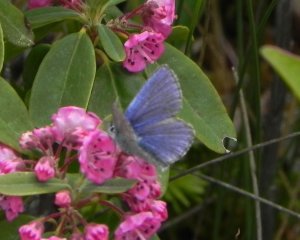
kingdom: Animalia
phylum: Arthropoda
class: Insecta
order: Lepidoptera
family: Lycaenidae
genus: Lycaeides
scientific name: Lycaeides idas
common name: Northern Blue
